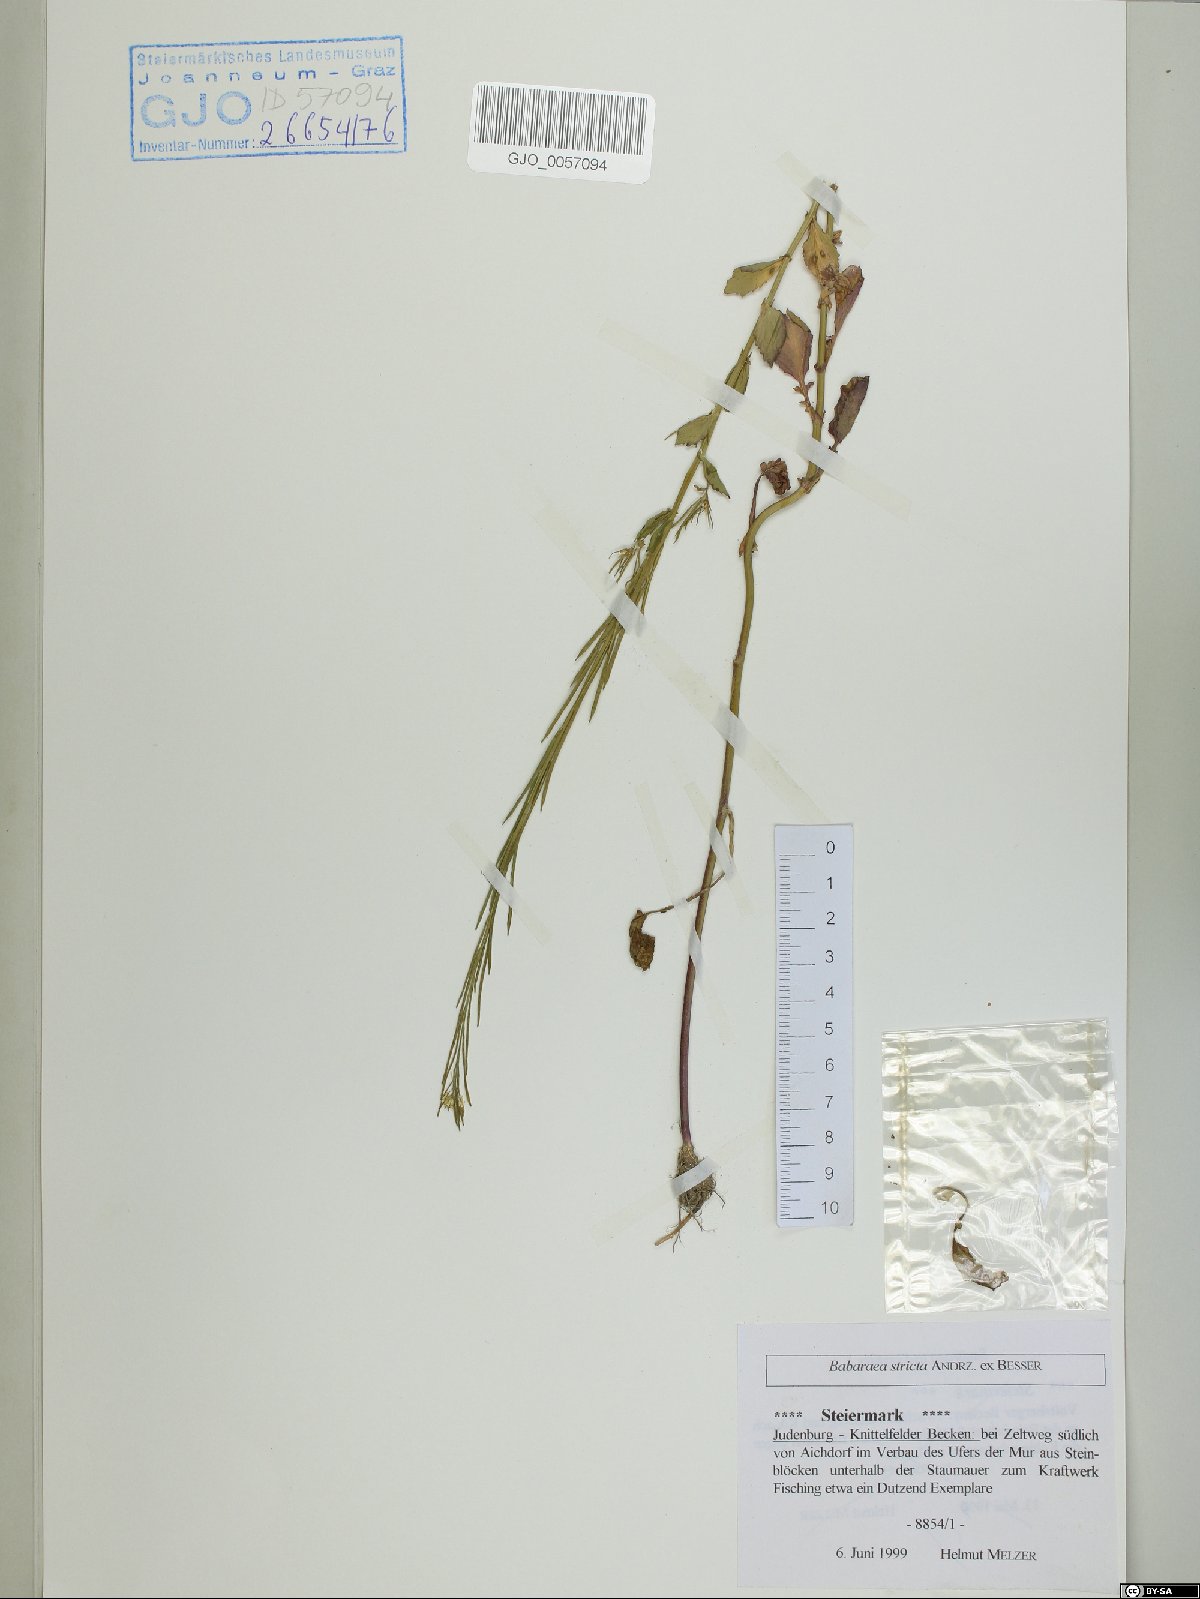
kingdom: Plantae
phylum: Tracheophyta
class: Magnoliopsida
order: Brassicales
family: Brassicaceae
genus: Barbarea
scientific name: Barbarea stricta
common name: Small-flowered winter-cress
